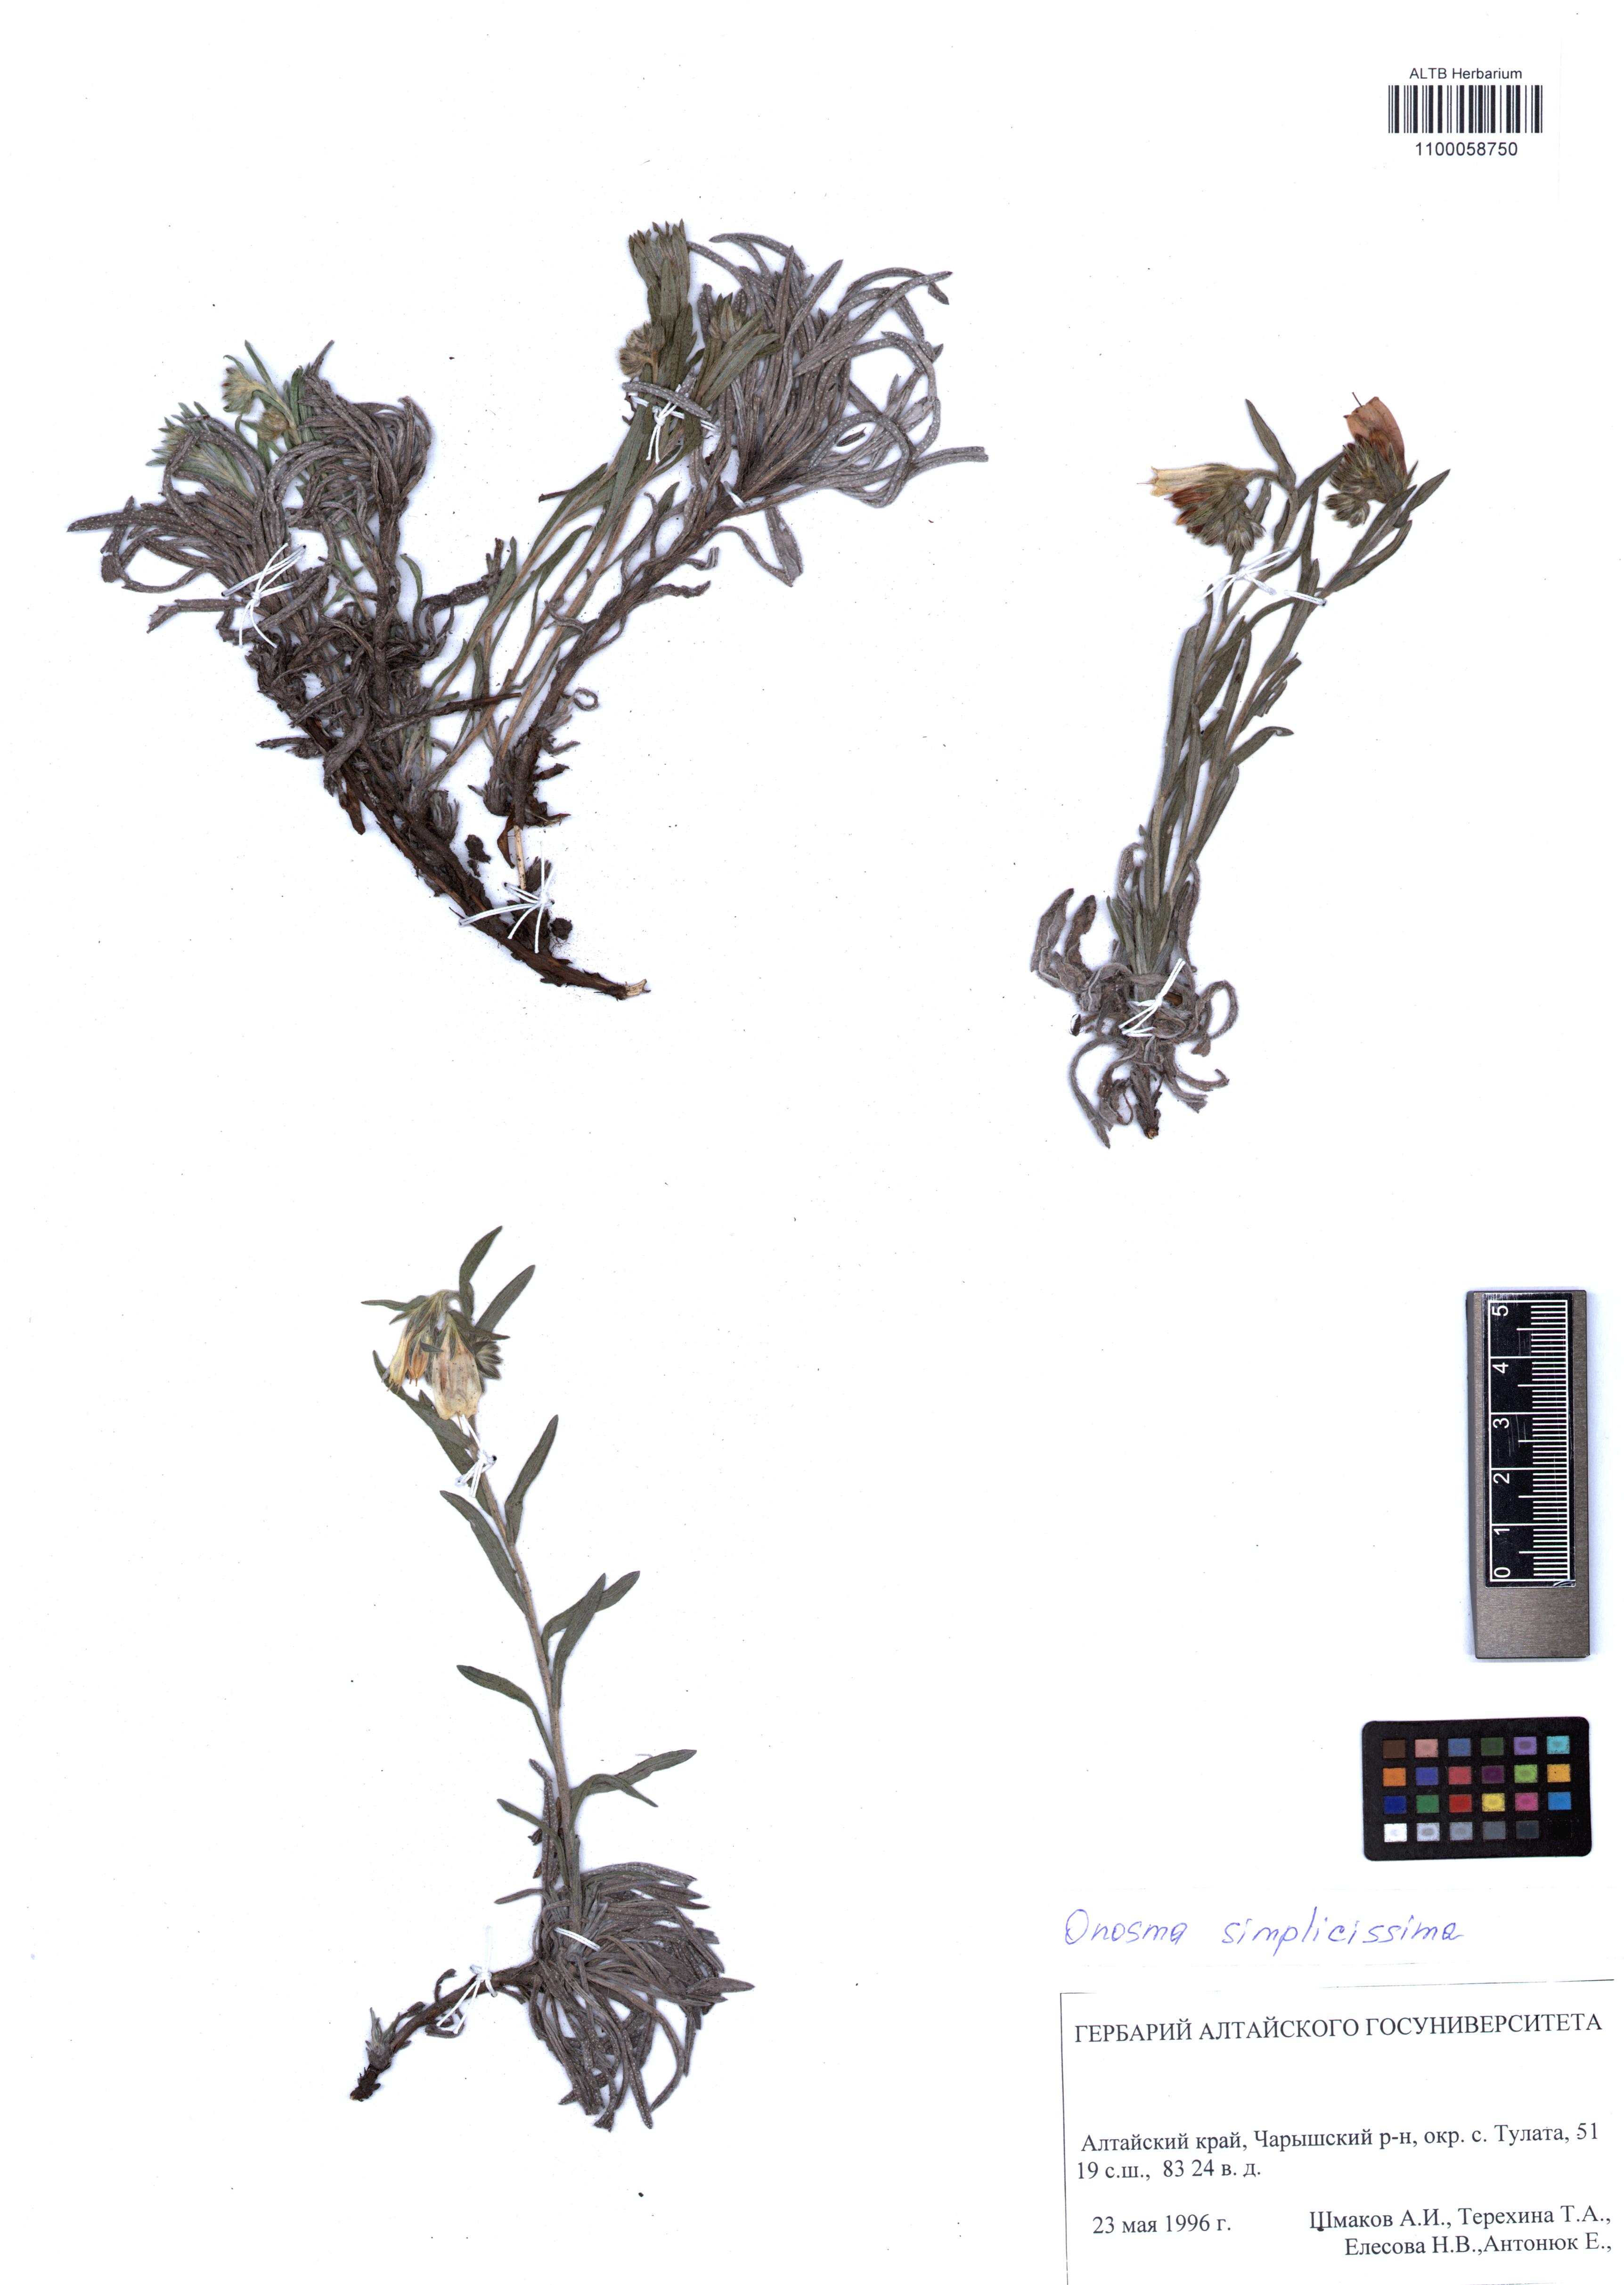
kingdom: Plantae
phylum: Tracheophyta
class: Magnoliopsida
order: Boraginales
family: Boraginaceae
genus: Onosma
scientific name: Onosma simplicissima
